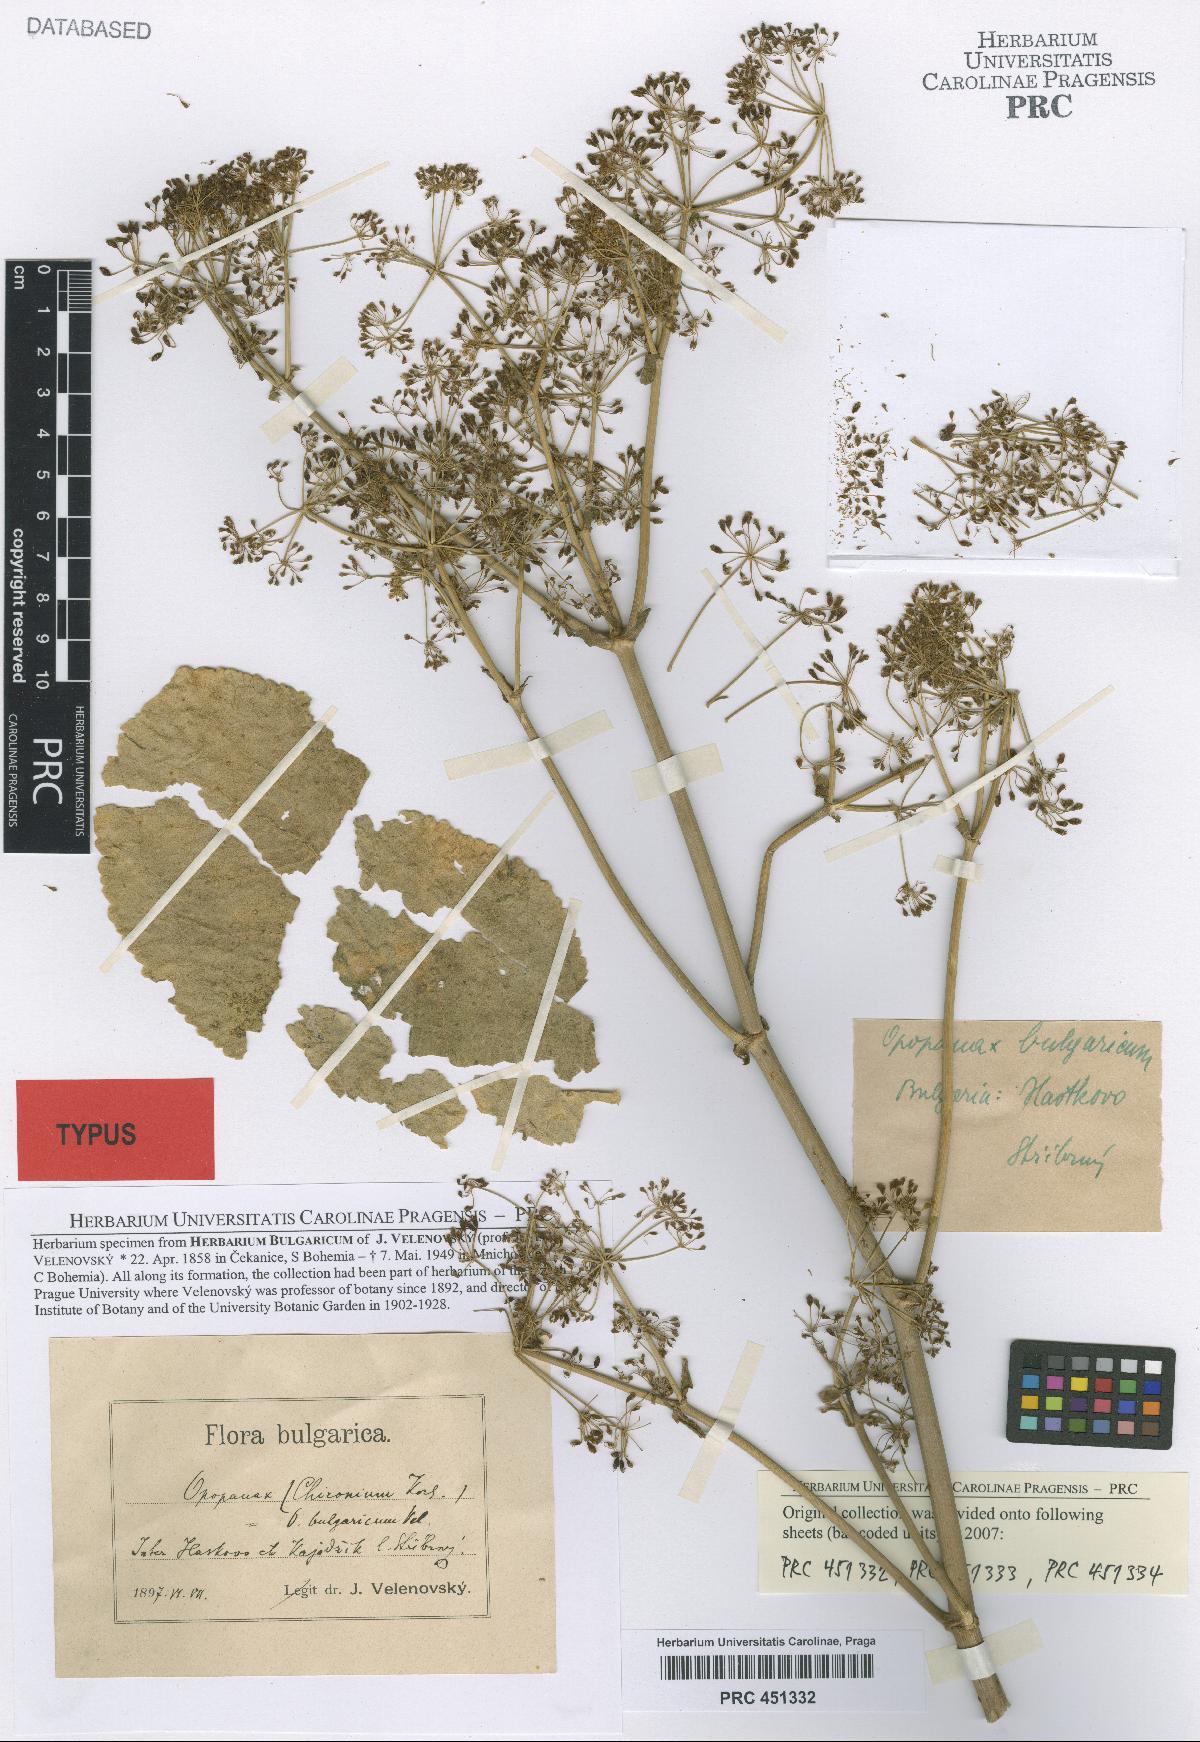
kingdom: Plantae
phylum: Tracheophyta
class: Magnoliopsida
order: Apiales
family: Apiaceae
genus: Opopanax
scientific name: Opopanax chironium
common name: Hercules-all-heal
